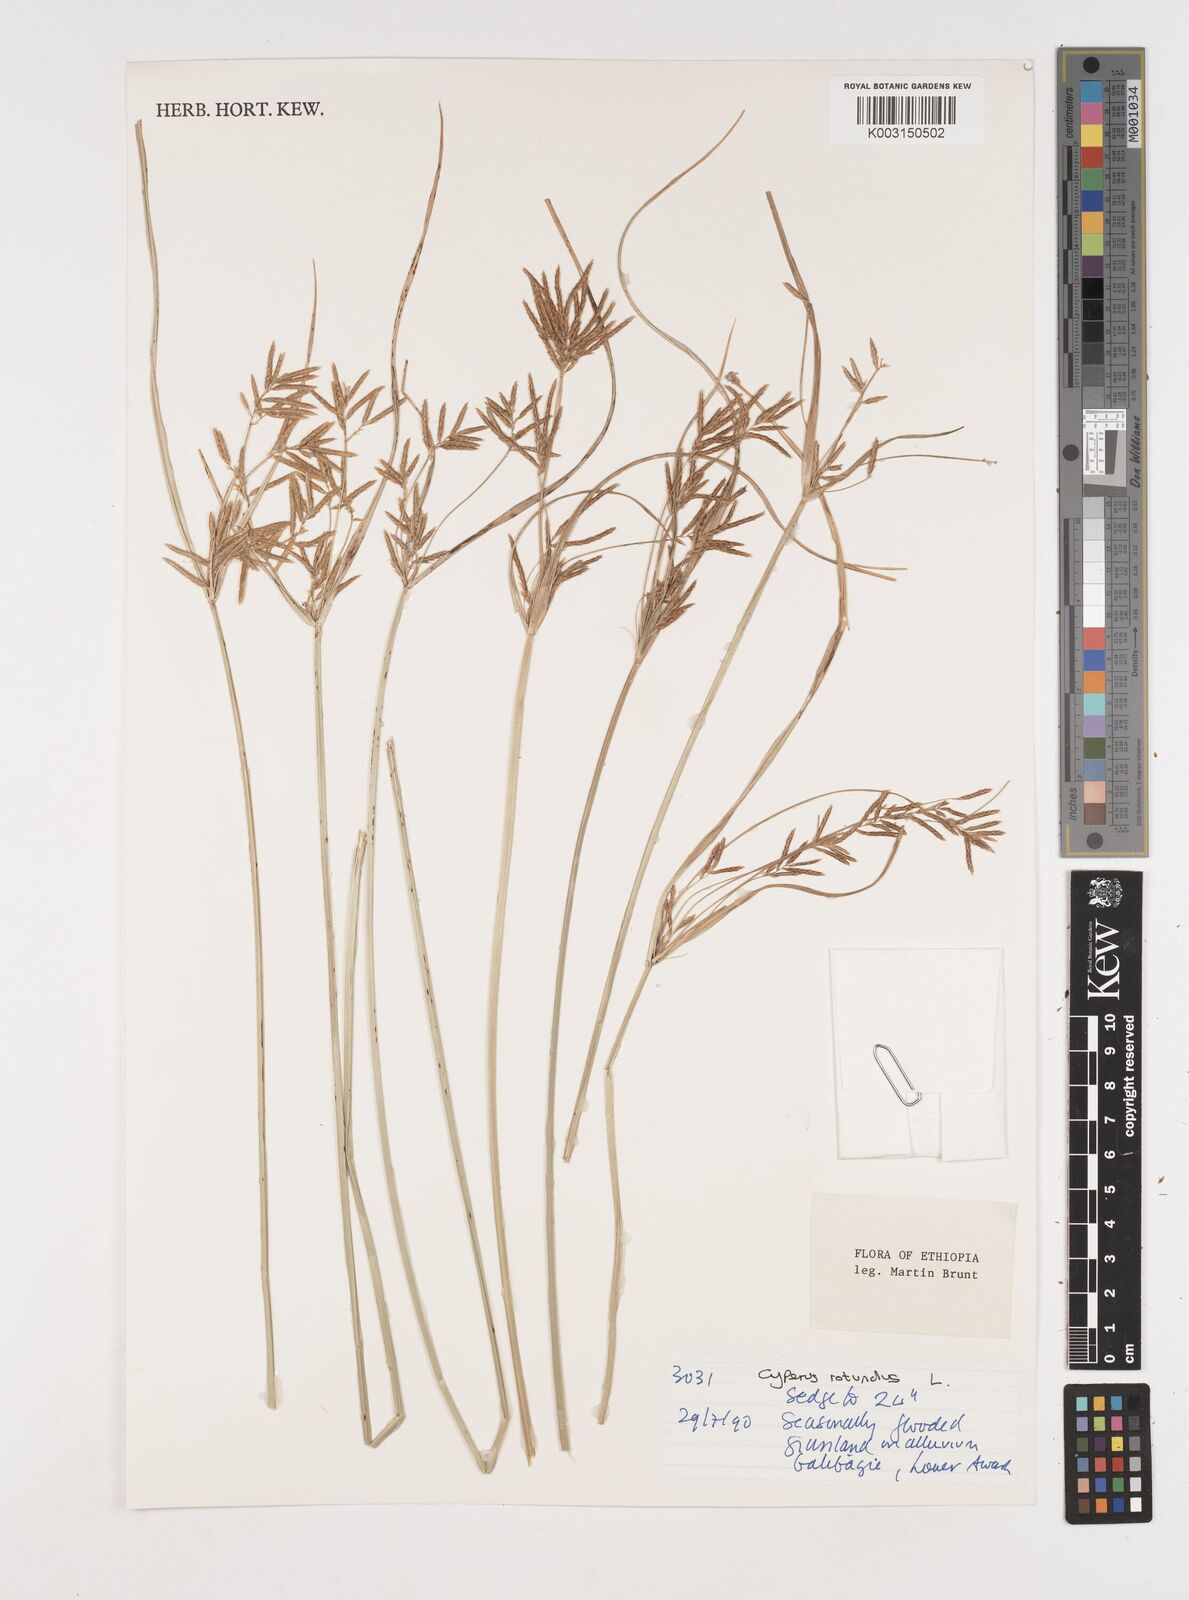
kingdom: Plantae
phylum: Tracheophyta
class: Liliopsida
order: Poales
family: Cyperaceae
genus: Cyperus
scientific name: Cyperus rotundus
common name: Nutgrass
